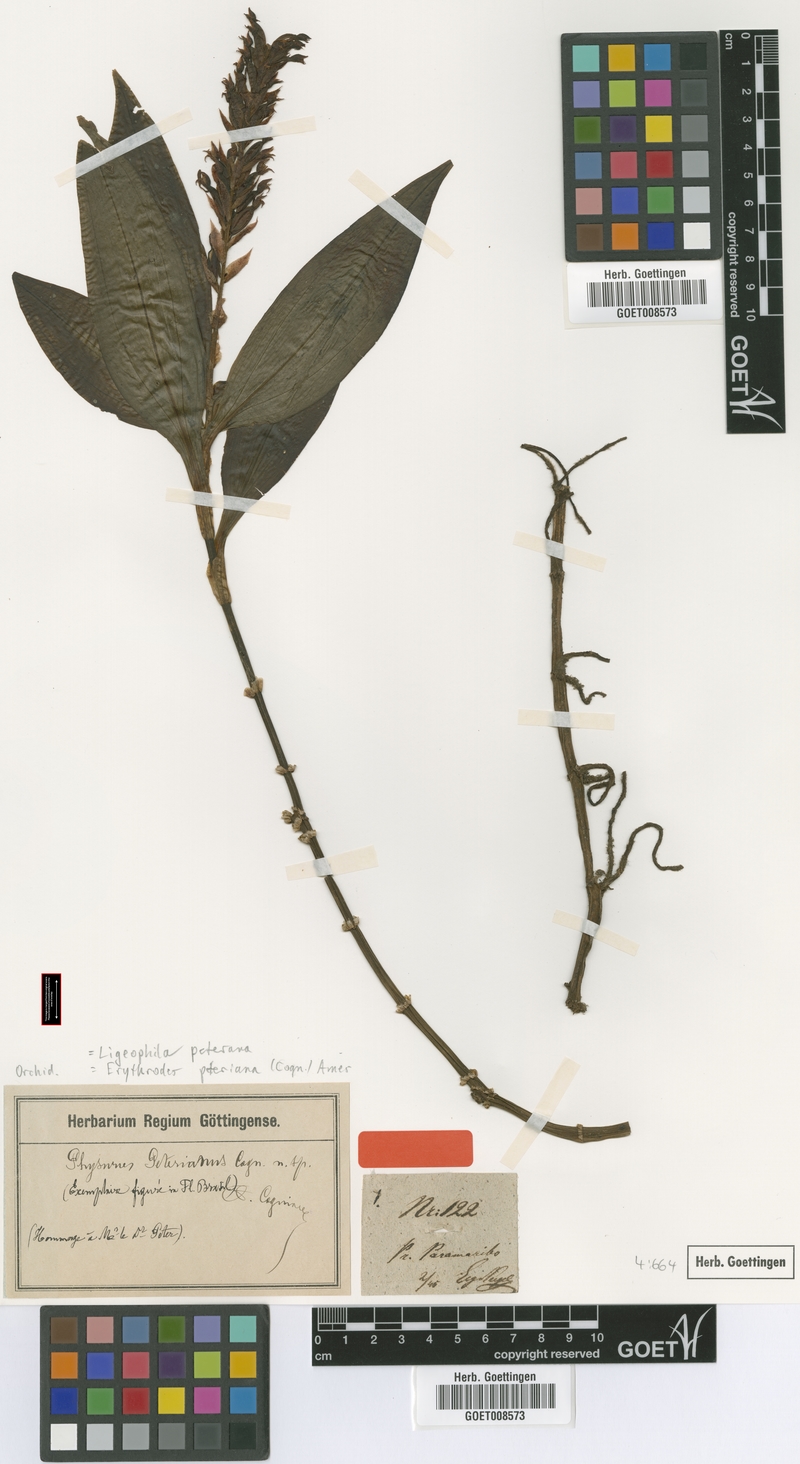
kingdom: Plantae
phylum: Tracheophyta
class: Liliopsida
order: Asparagales
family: Orchidaceae
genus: Aspidogyne
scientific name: Aspidogyne peteriana
